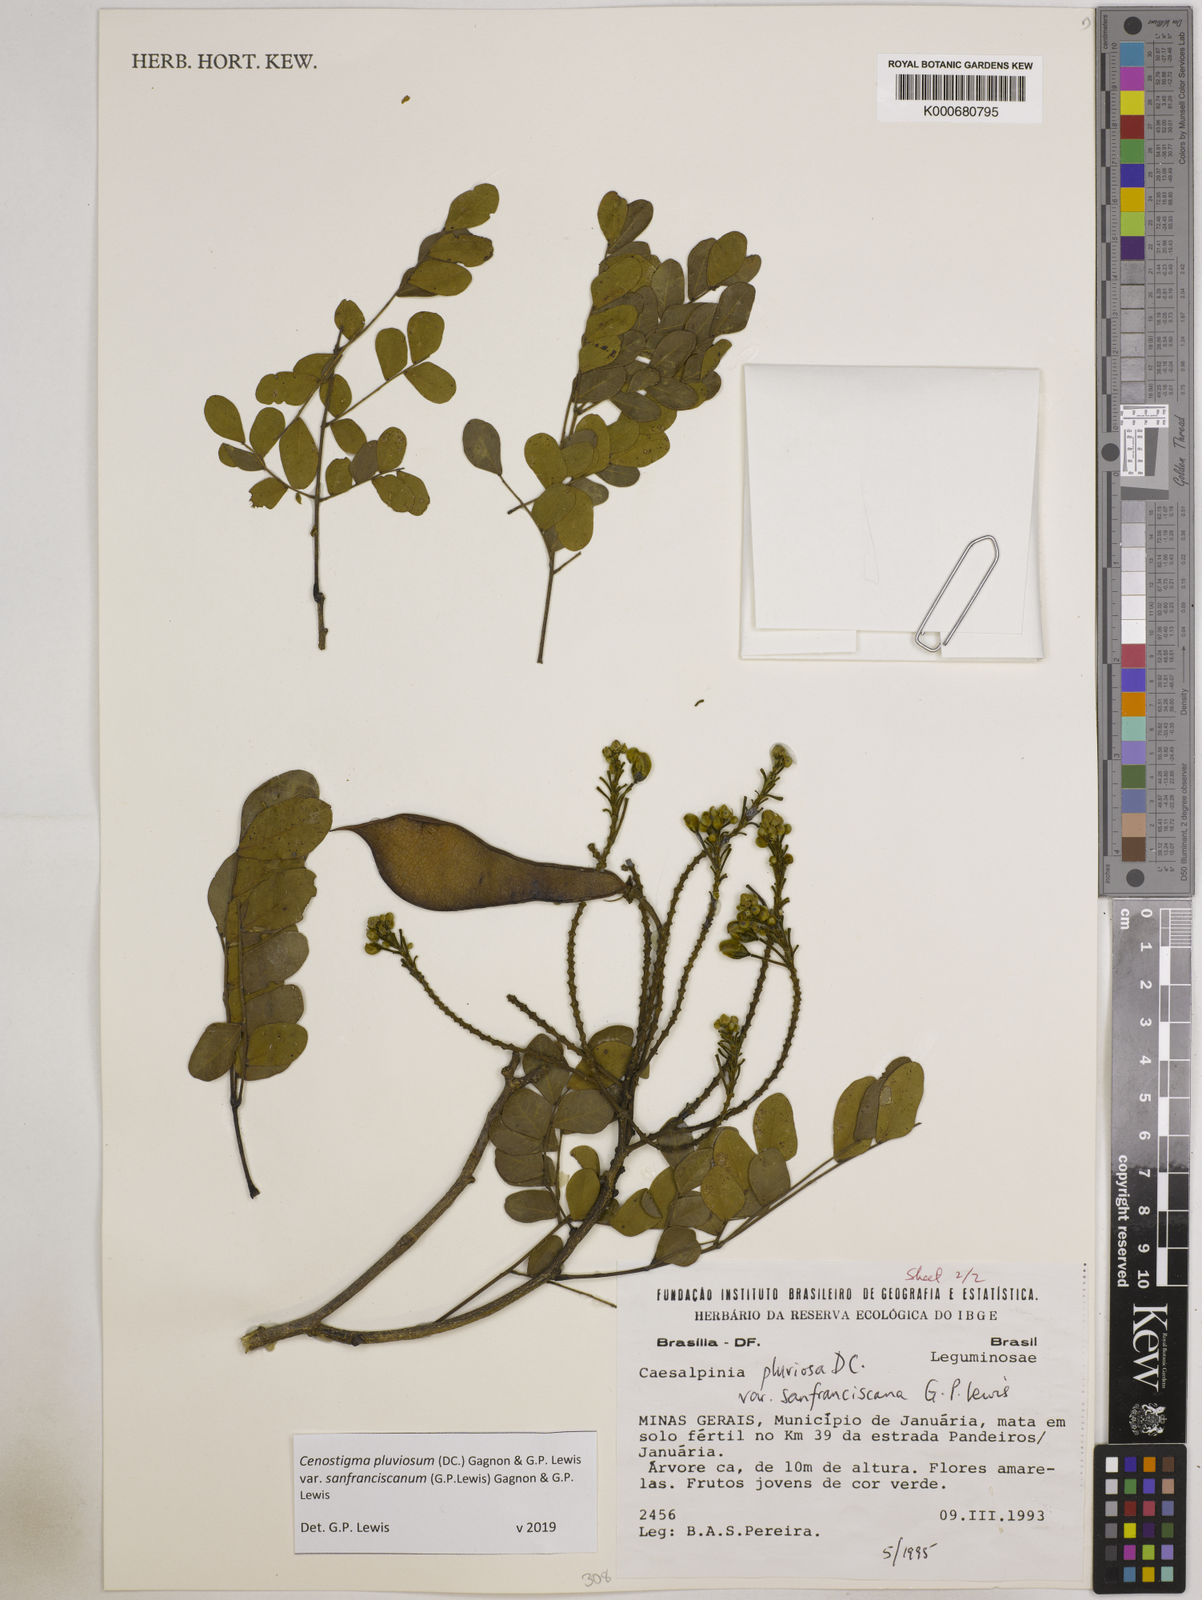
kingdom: Plantae
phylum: Tracheophyta
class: Magnoliopsida
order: Fabales
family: Fabaceae
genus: Cenostigma
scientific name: Cenostigma pluviosum
